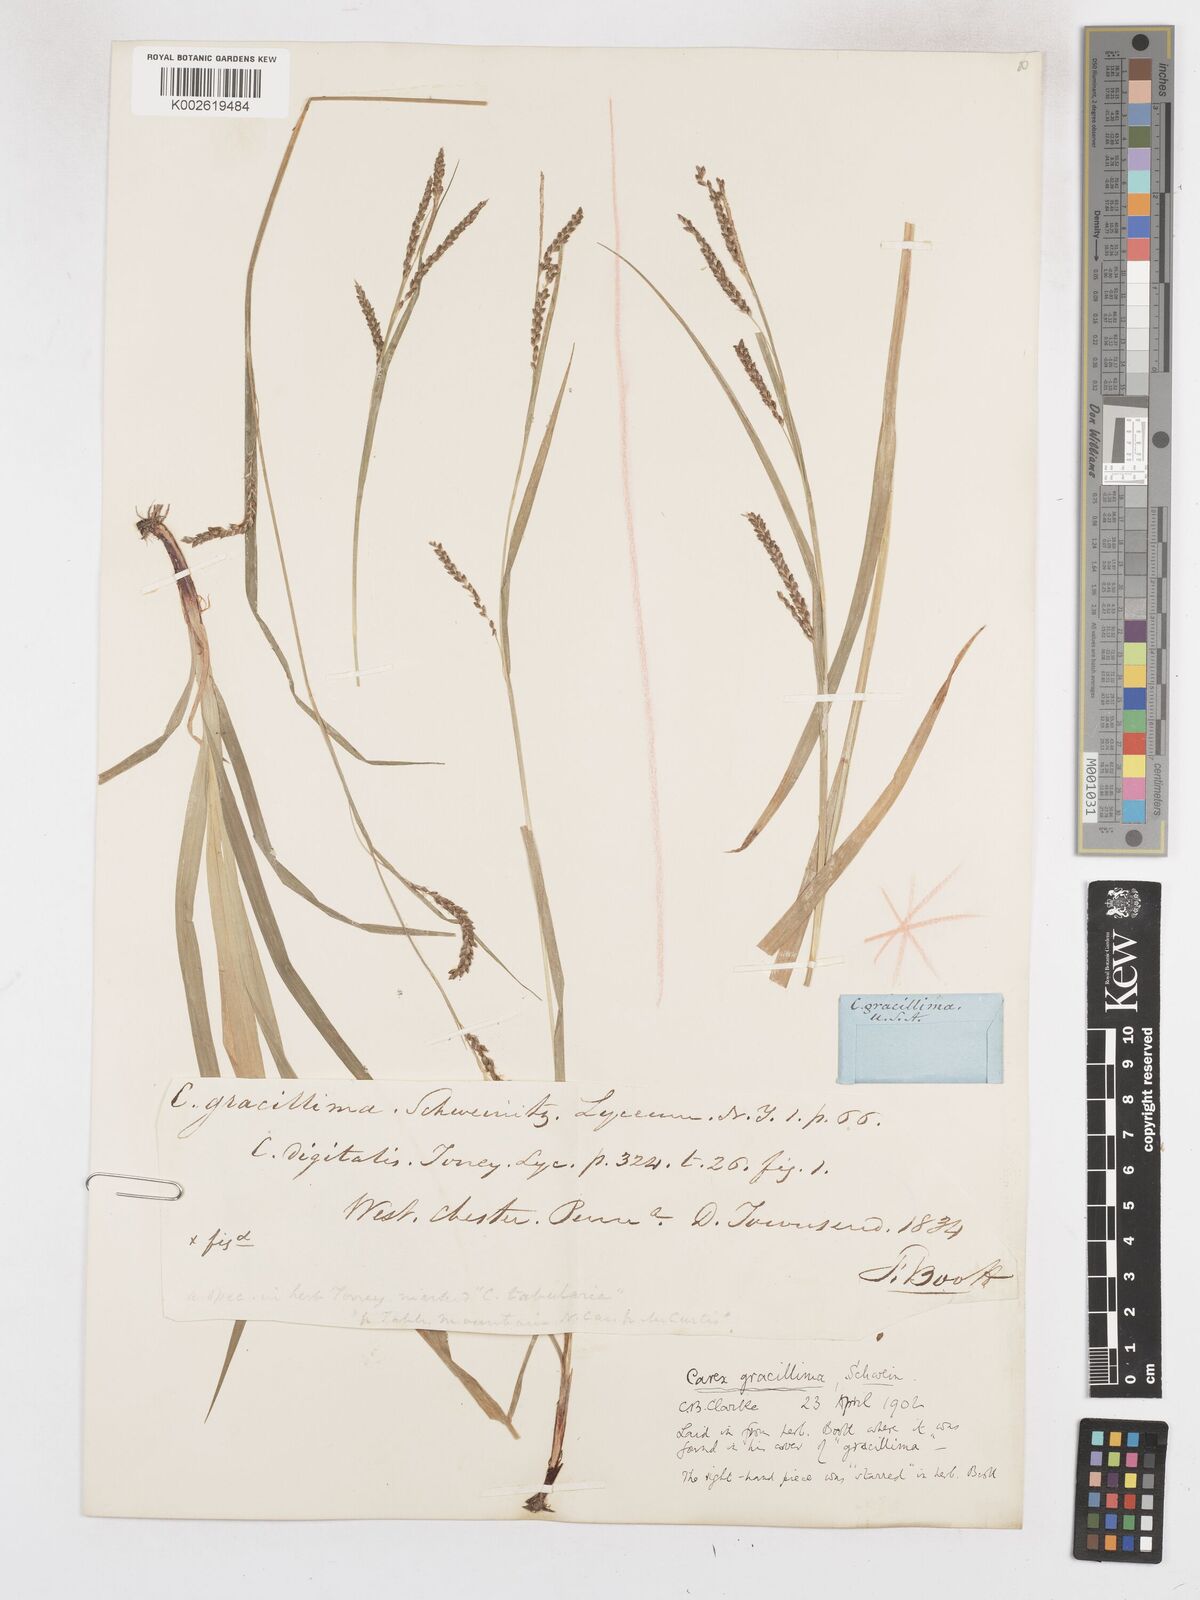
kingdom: Plantae
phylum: Tracheophyta
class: Liliopsida
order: Poales
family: Cyperaceae
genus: Carex
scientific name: Carex gracillima
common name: Graceful sedge
